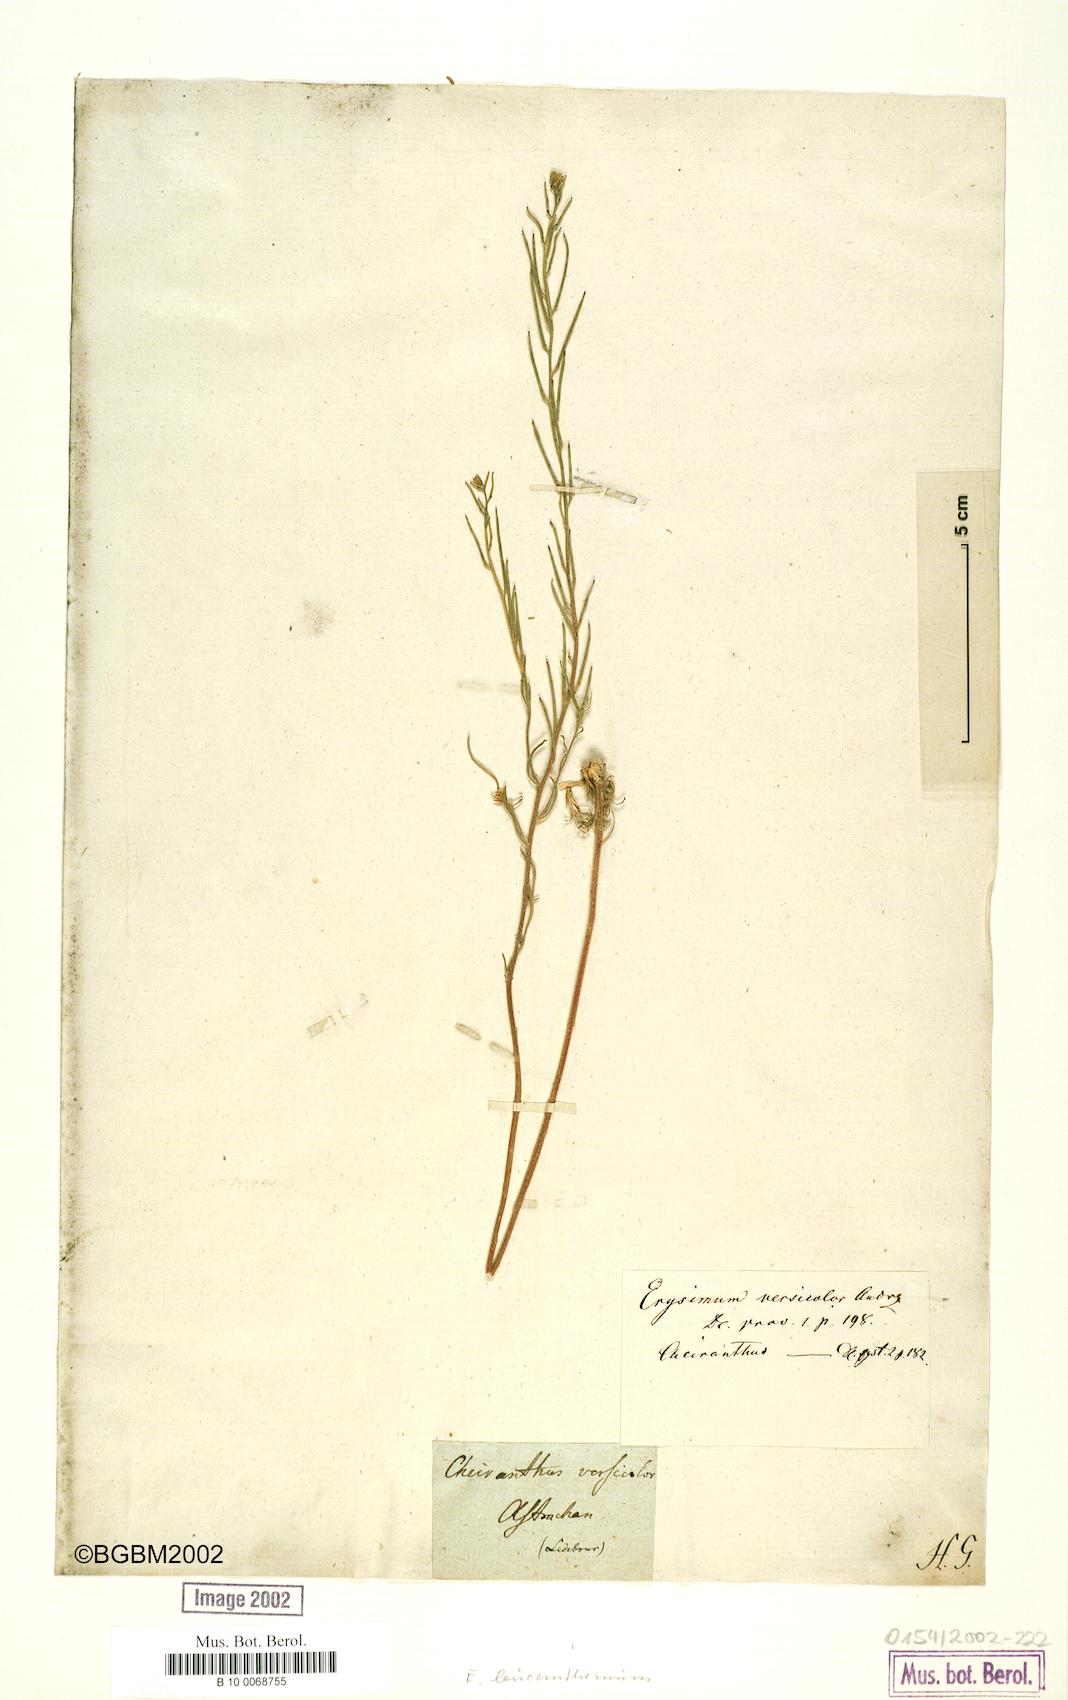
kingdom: Plantae
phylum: Tracheophyta
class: Magnoliopsida
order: Brassicales
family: Brassicaceae
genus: Erysimum
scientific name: Erysimum leucanthemum
